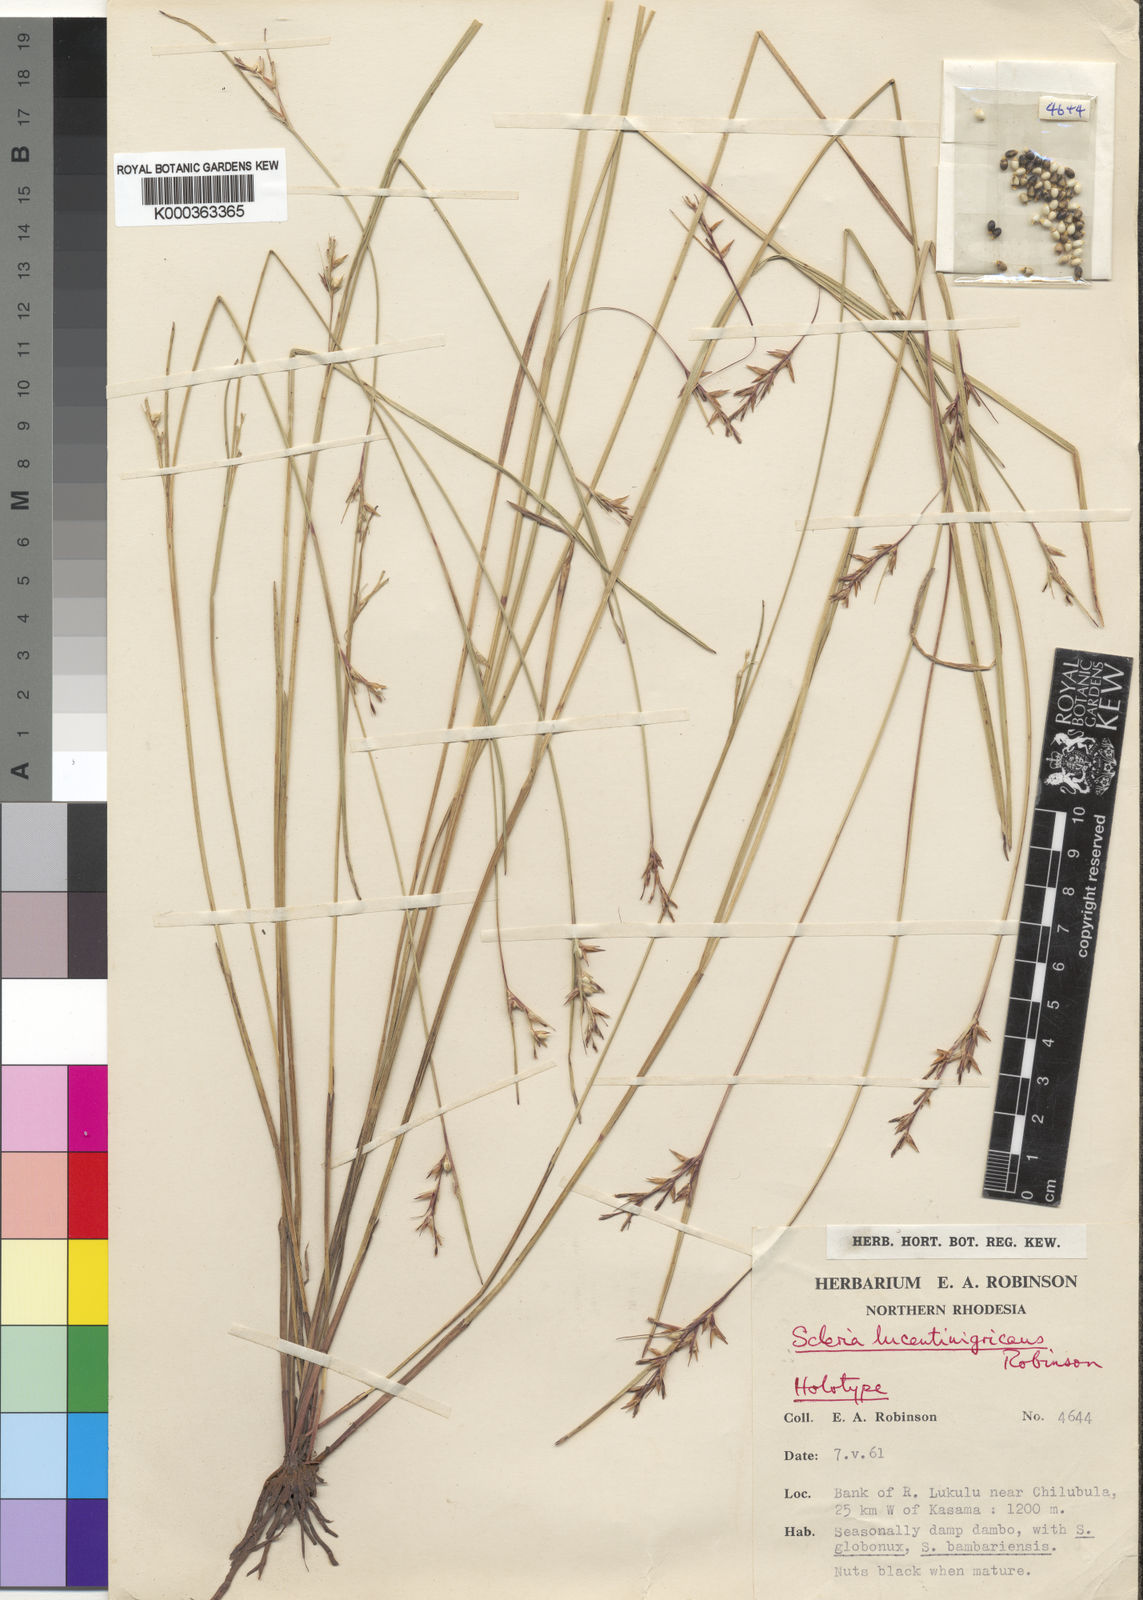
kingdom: Plantae
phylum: Tracheophyta
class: Liliopsida
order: Poales
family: Cyperaceae
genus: Scleria
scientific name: Scleria lucentinigricans
